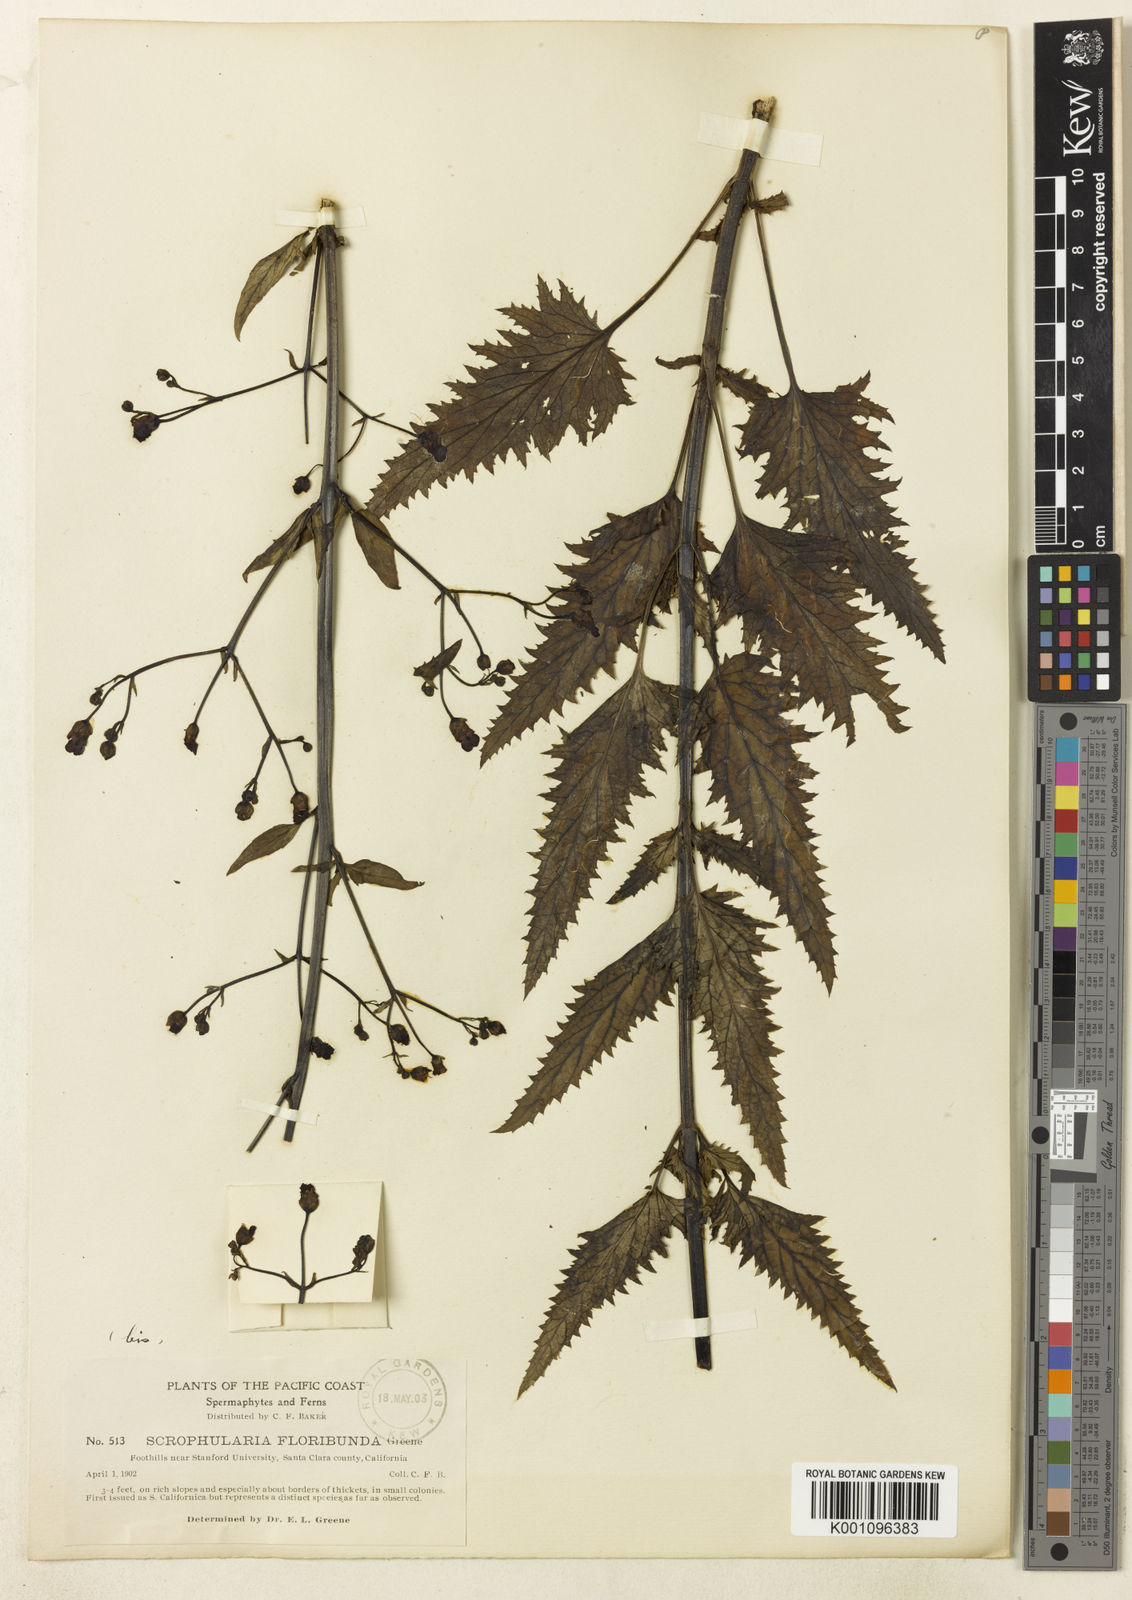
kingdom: Plantae
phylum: Tracheophyta
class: Magnoliopsida
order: Lamiales
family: Scrophulariaceae
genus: Scrophularia
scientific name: Scrophularia californica
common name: California figwort
